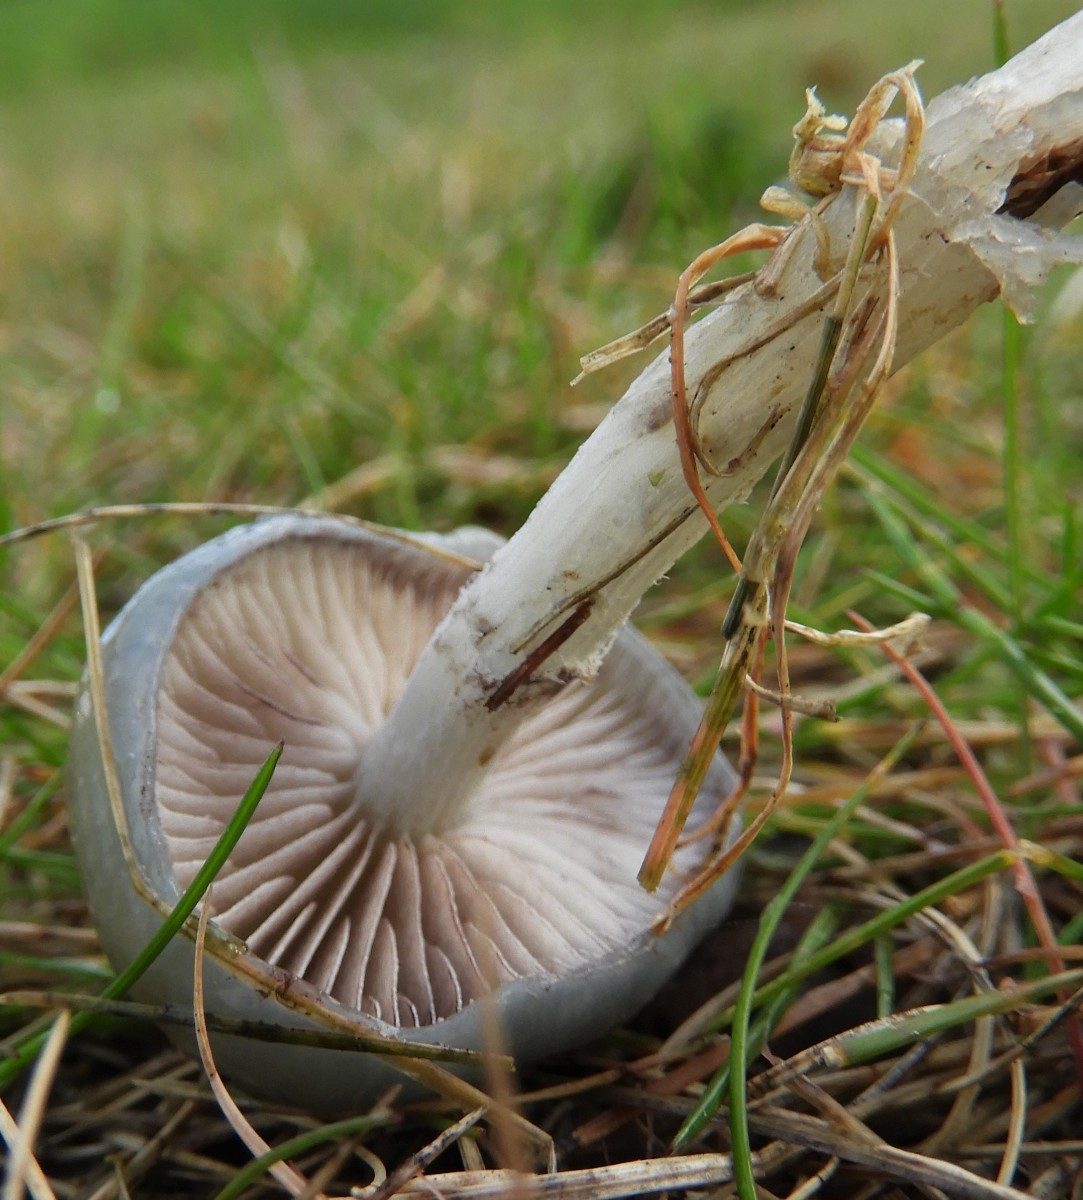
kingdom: Fungi
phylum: Basidiomycota
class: Agaricomycetes
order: Agaricales
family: Strophariaceae
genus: Stropharia
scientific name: Stropharia cyanea
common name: blågrøn bredblad
